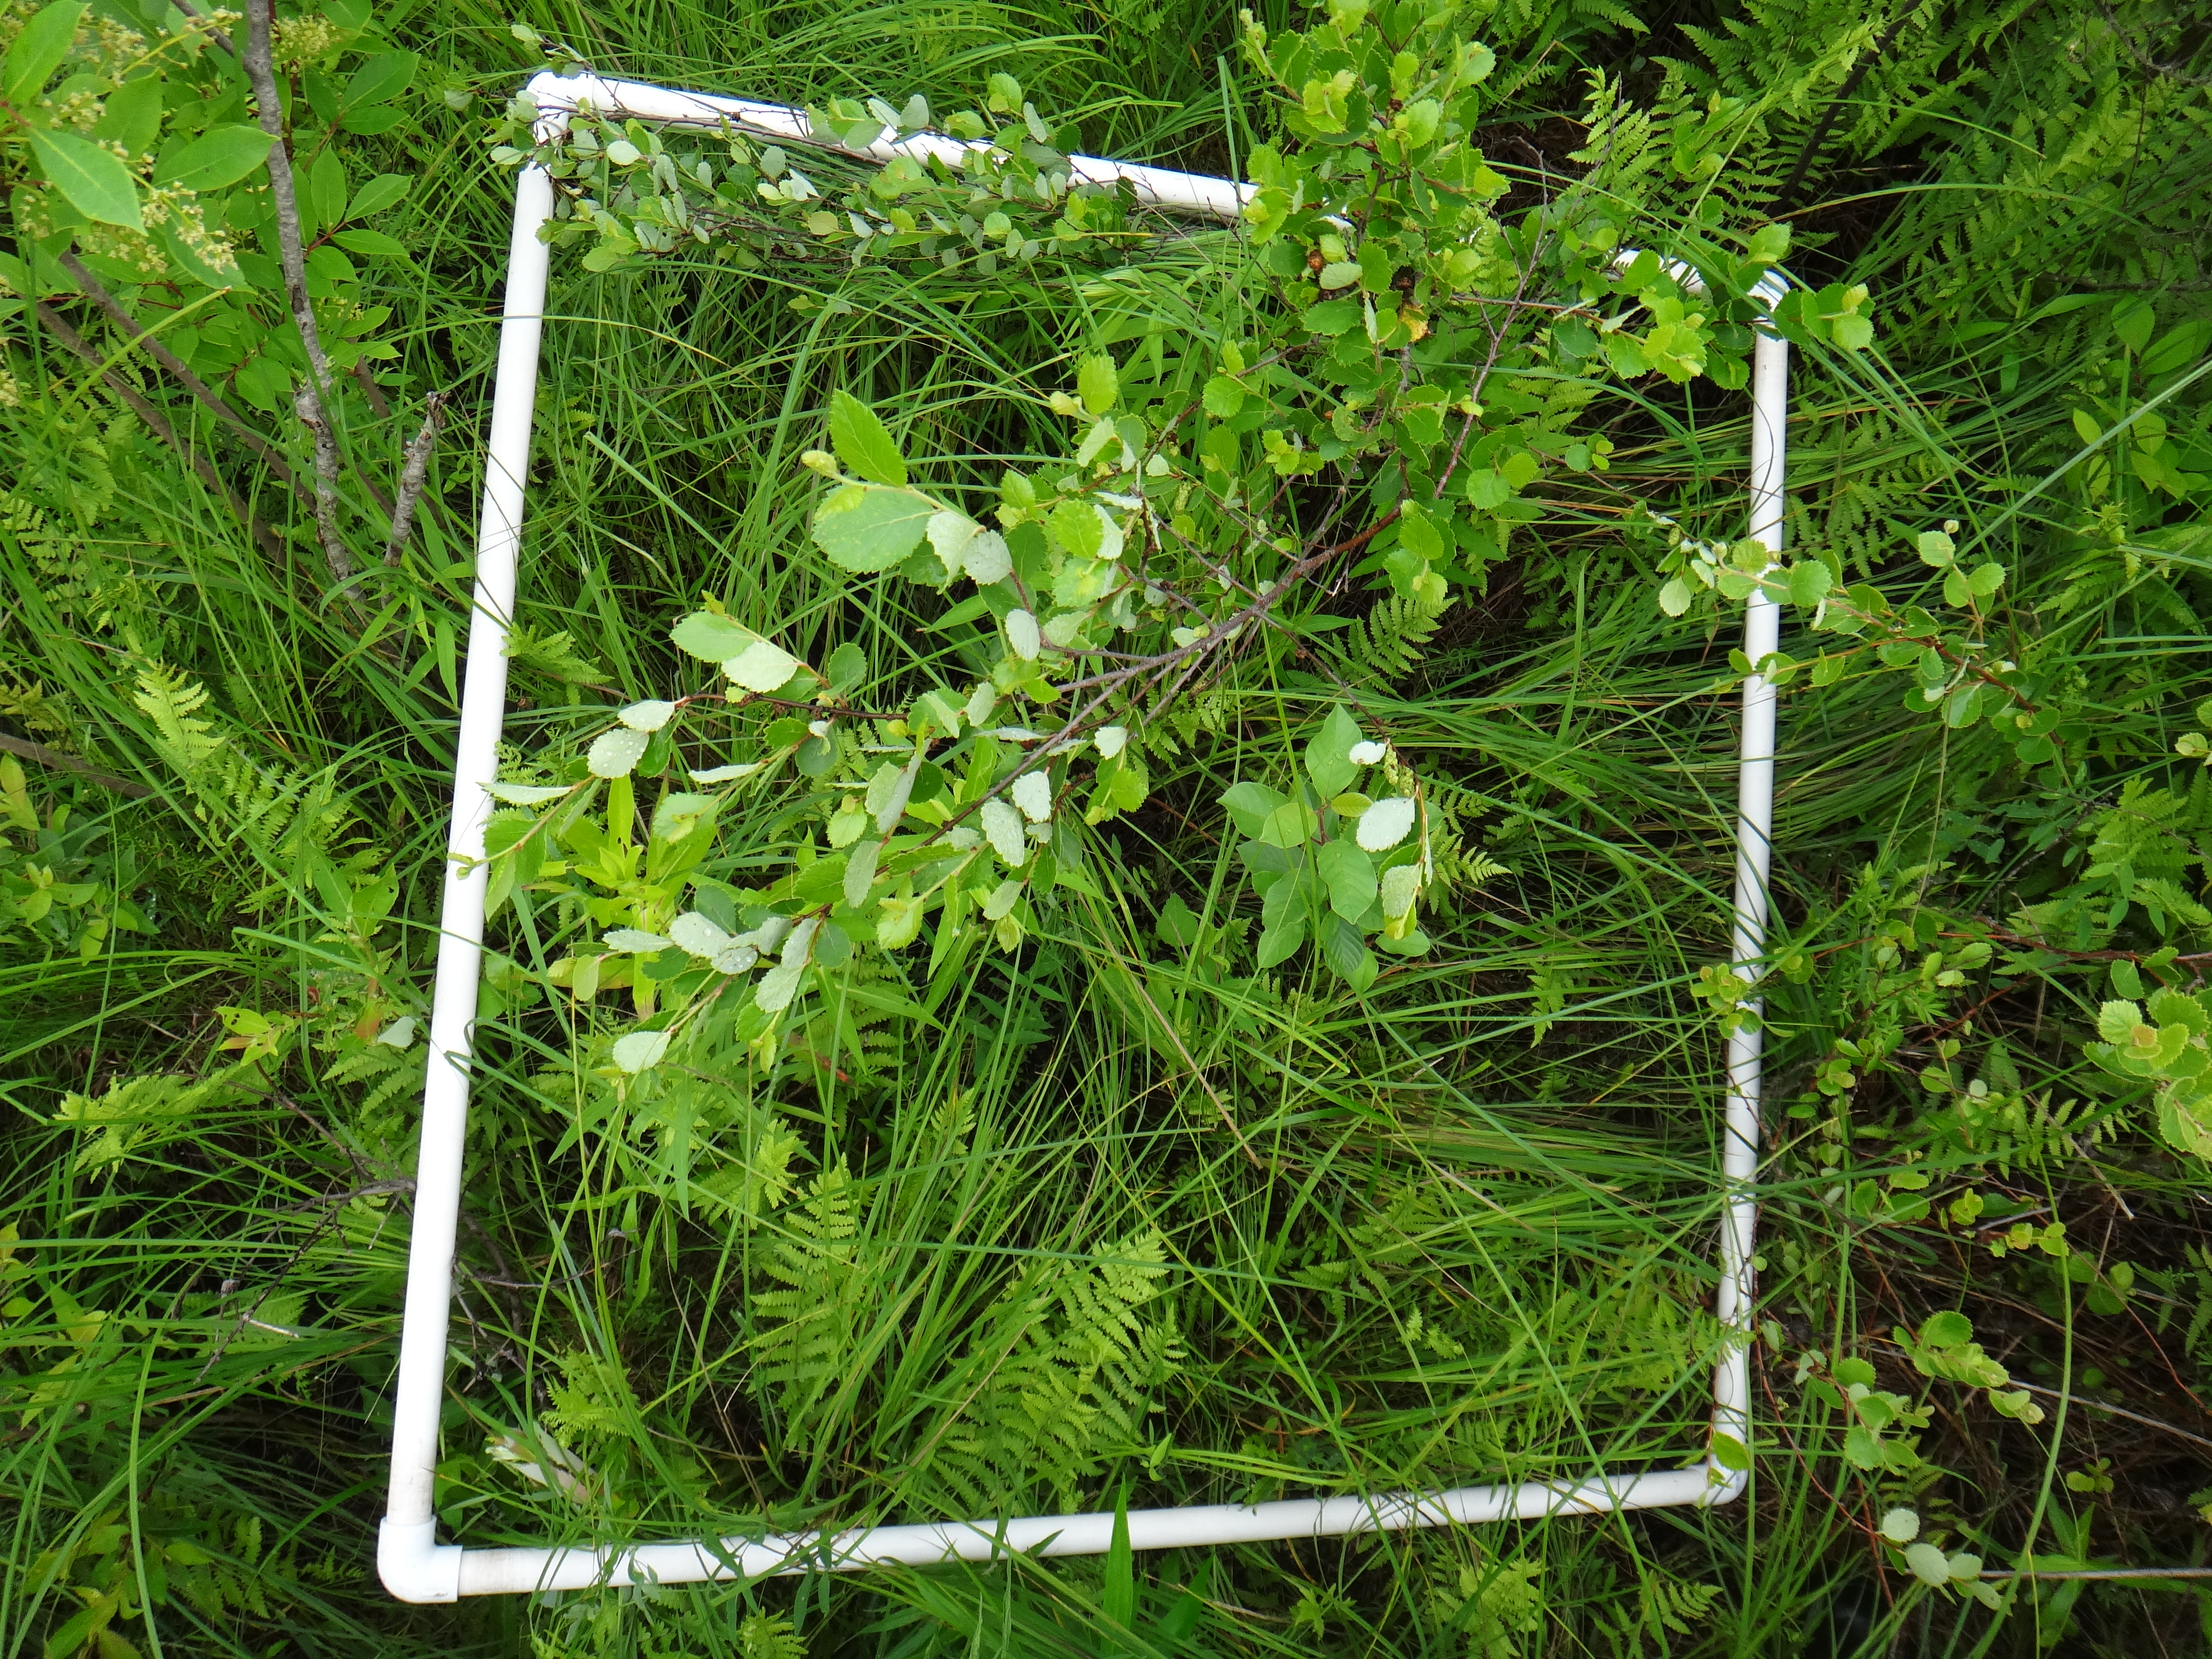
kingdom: Plantae
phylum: Tracheophyta
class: Magnoliopsida
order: Asterales
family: Asteraceae
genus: Solidago
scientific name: Solidago ohioensis
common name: Ohio goldenrod
